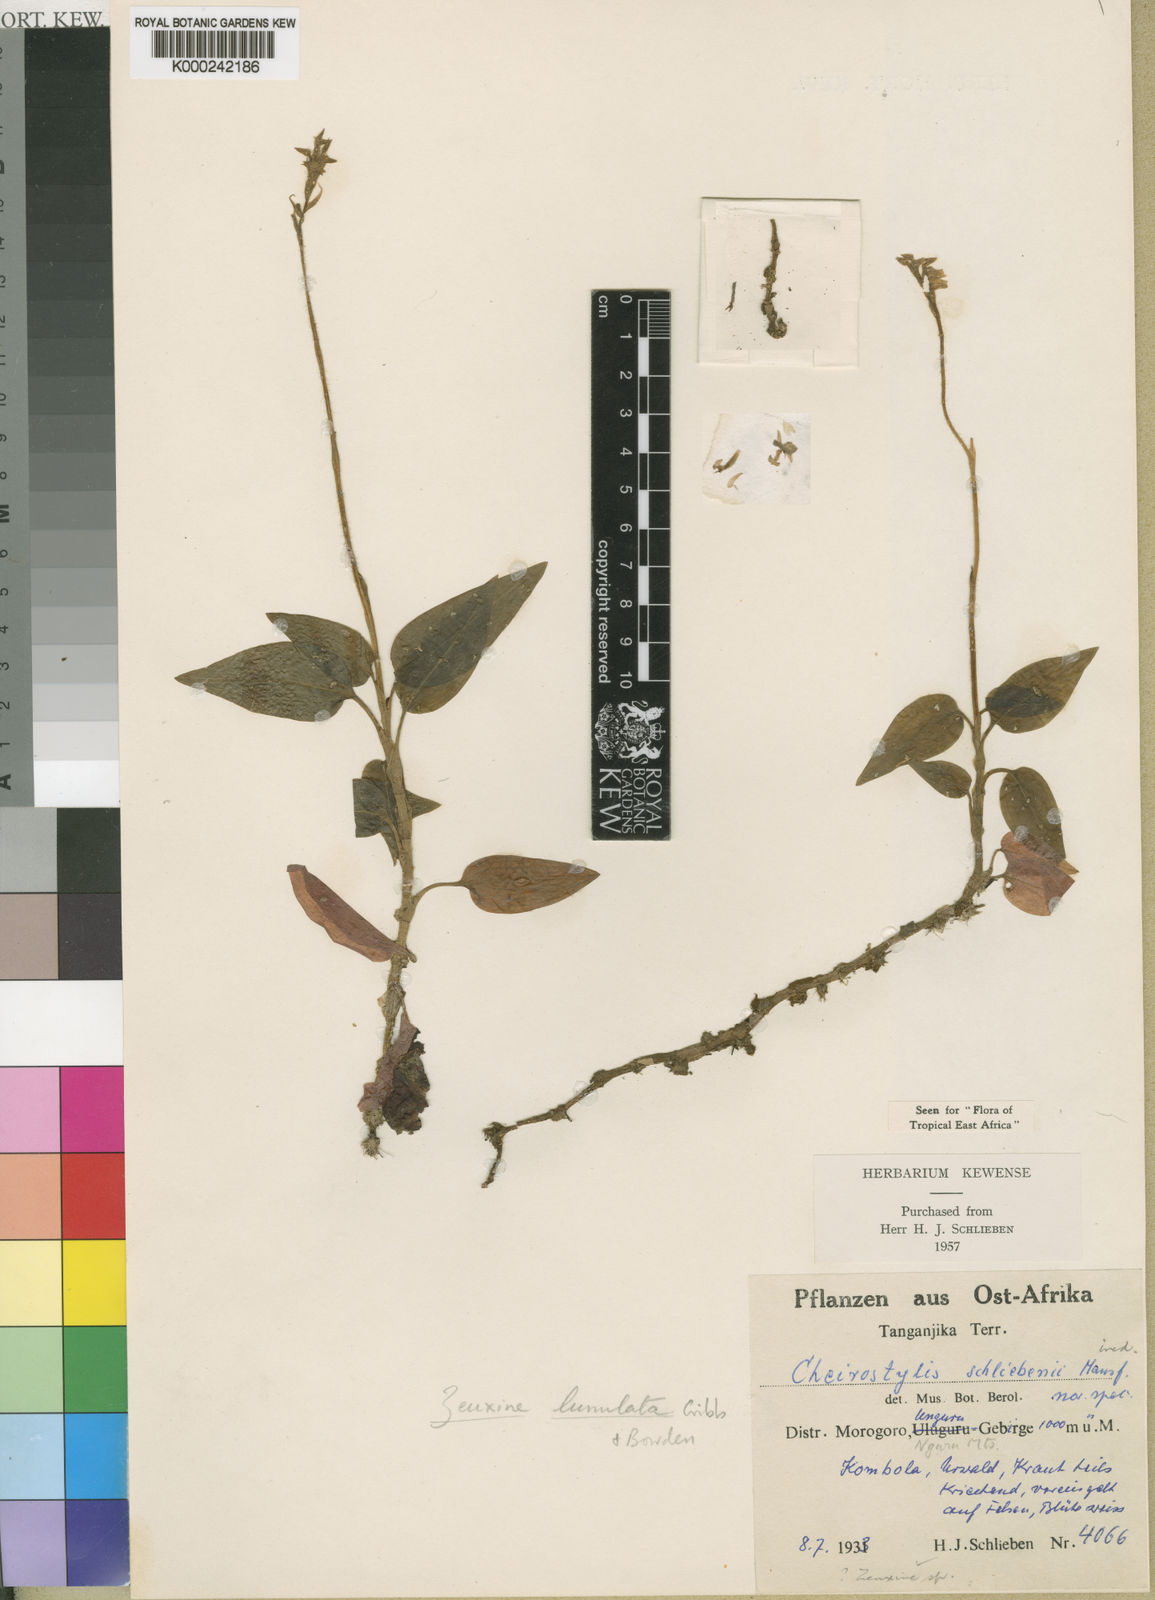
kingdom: Plantae
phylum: Tracheophyta
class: Liliopsida
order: Asparagales
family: Orchidaceae
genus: Zeuxine
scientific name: Zeuxine lunulata
